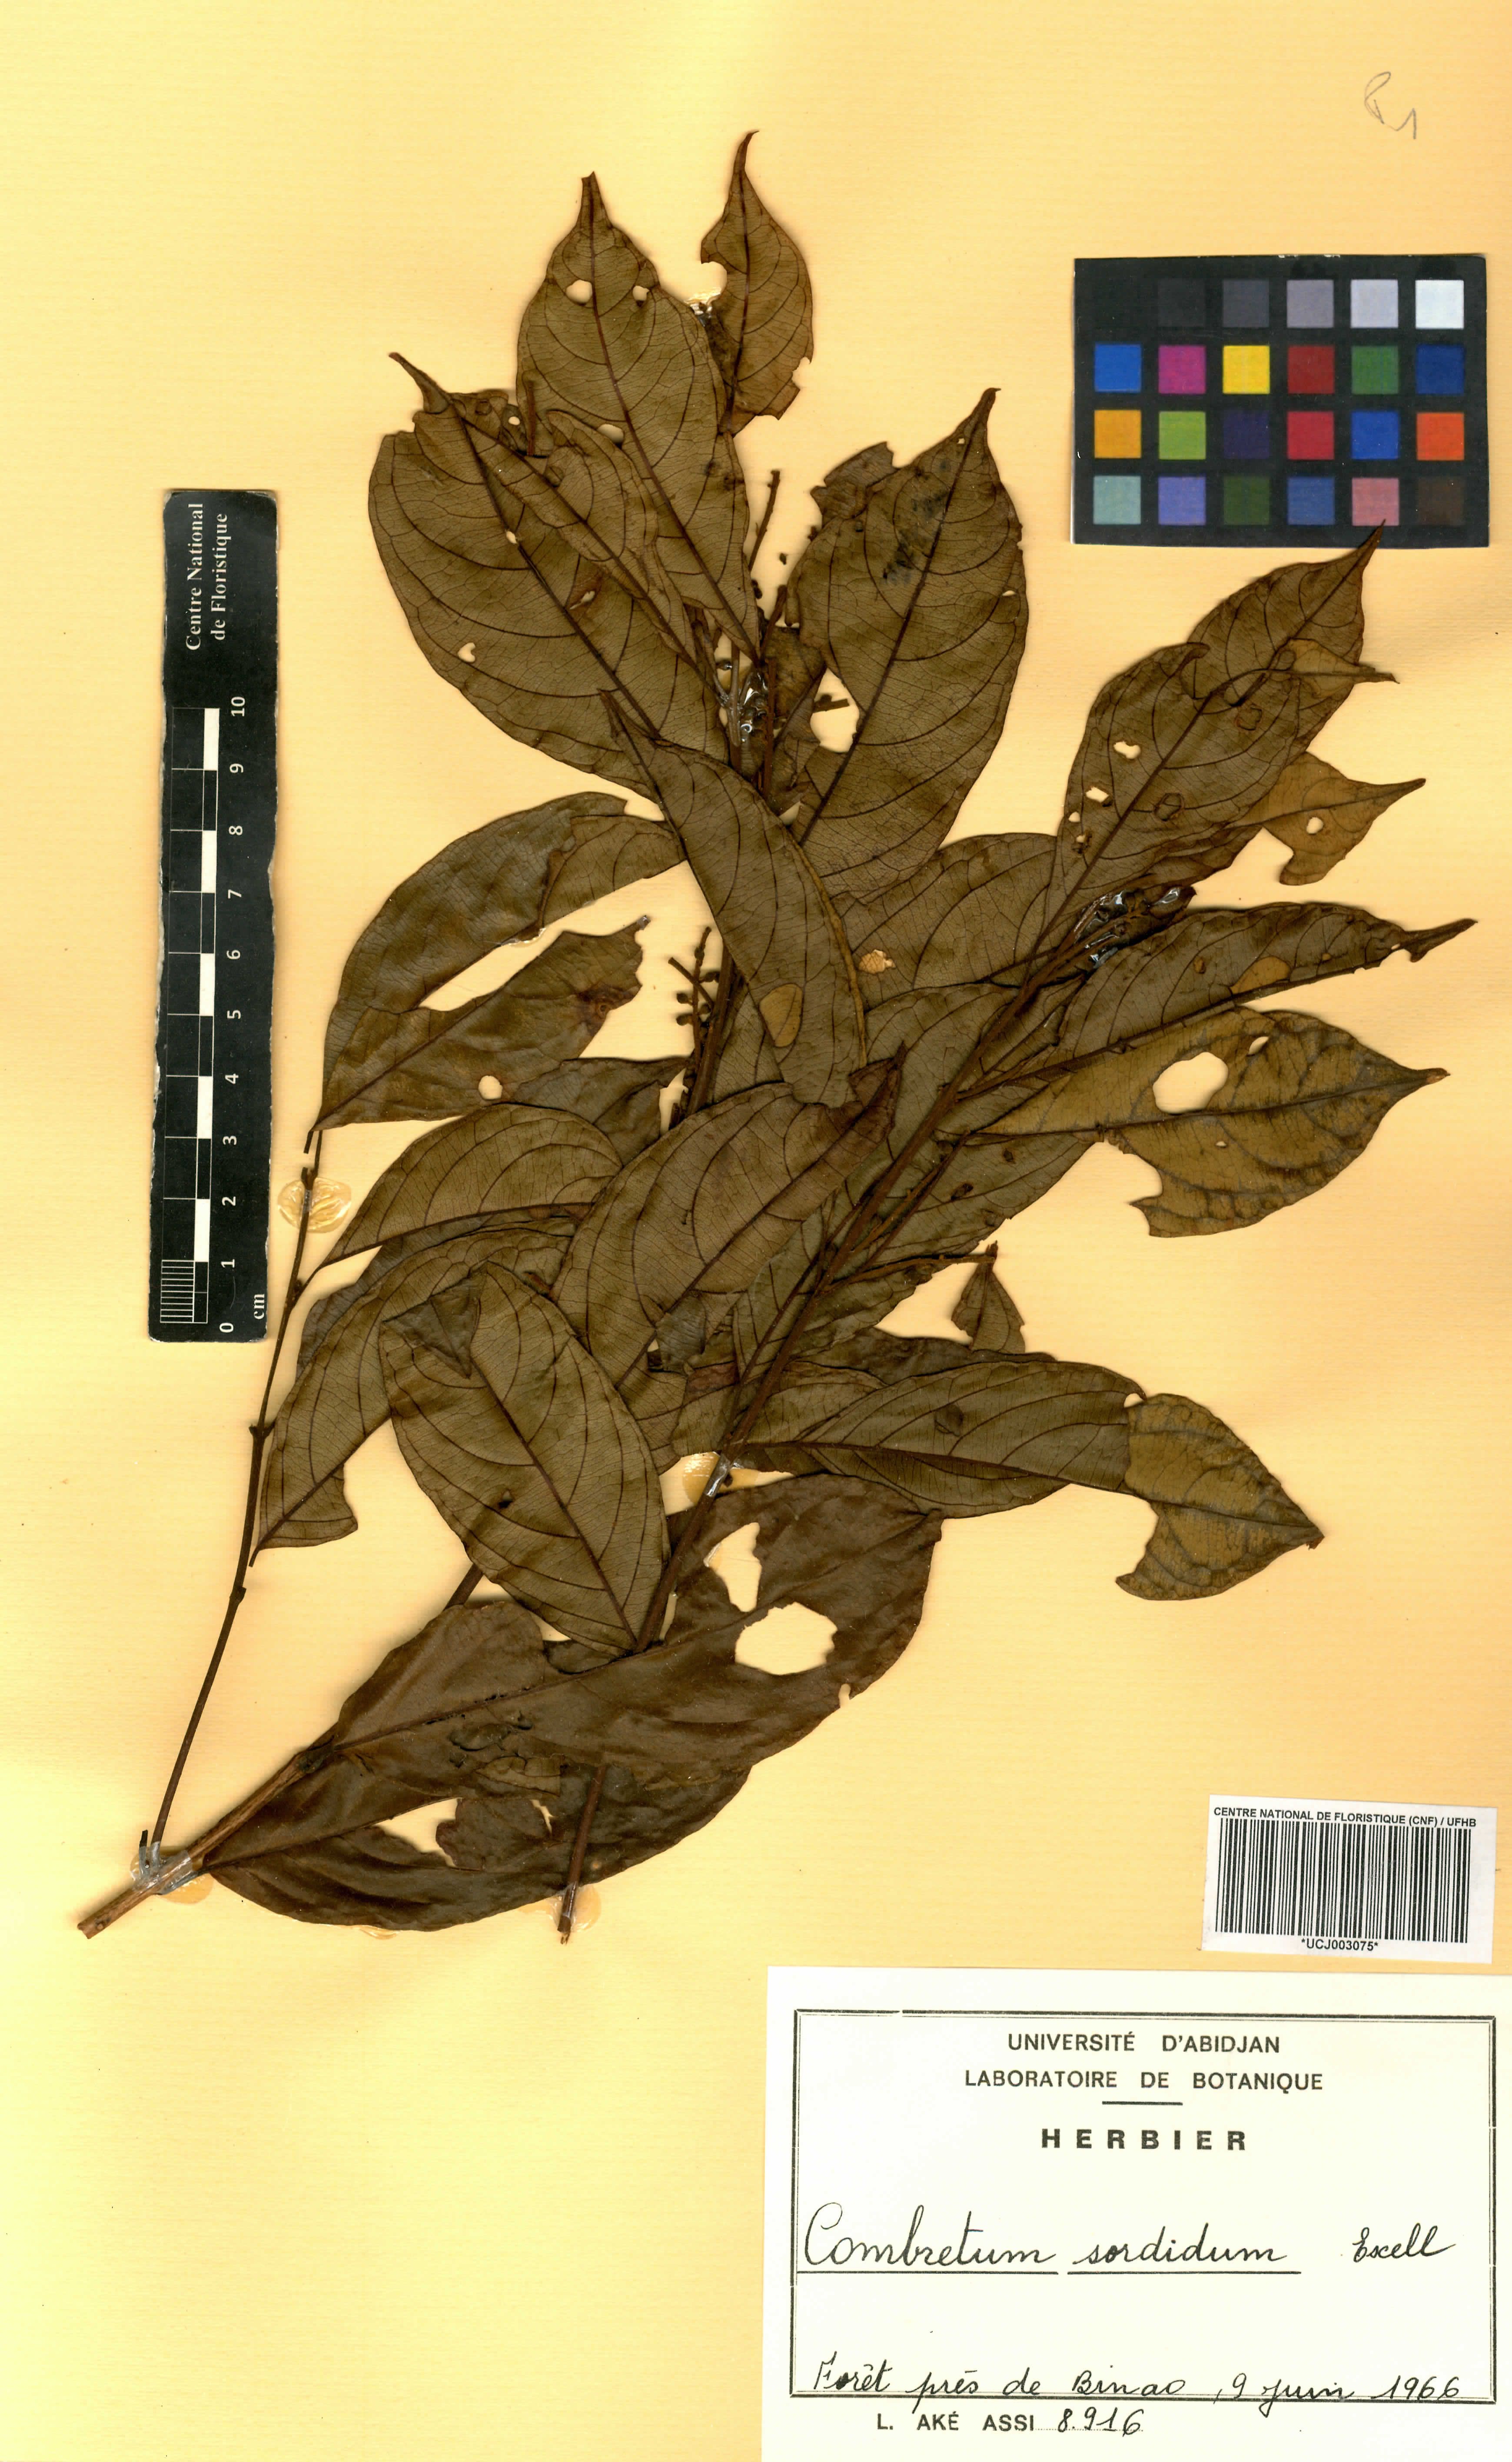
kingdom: Plantae
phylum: Tracheophyta
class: Magnoliopsida
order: Myrtales
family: Combretaceae
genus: Combretum
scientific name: Combretum sordidum
